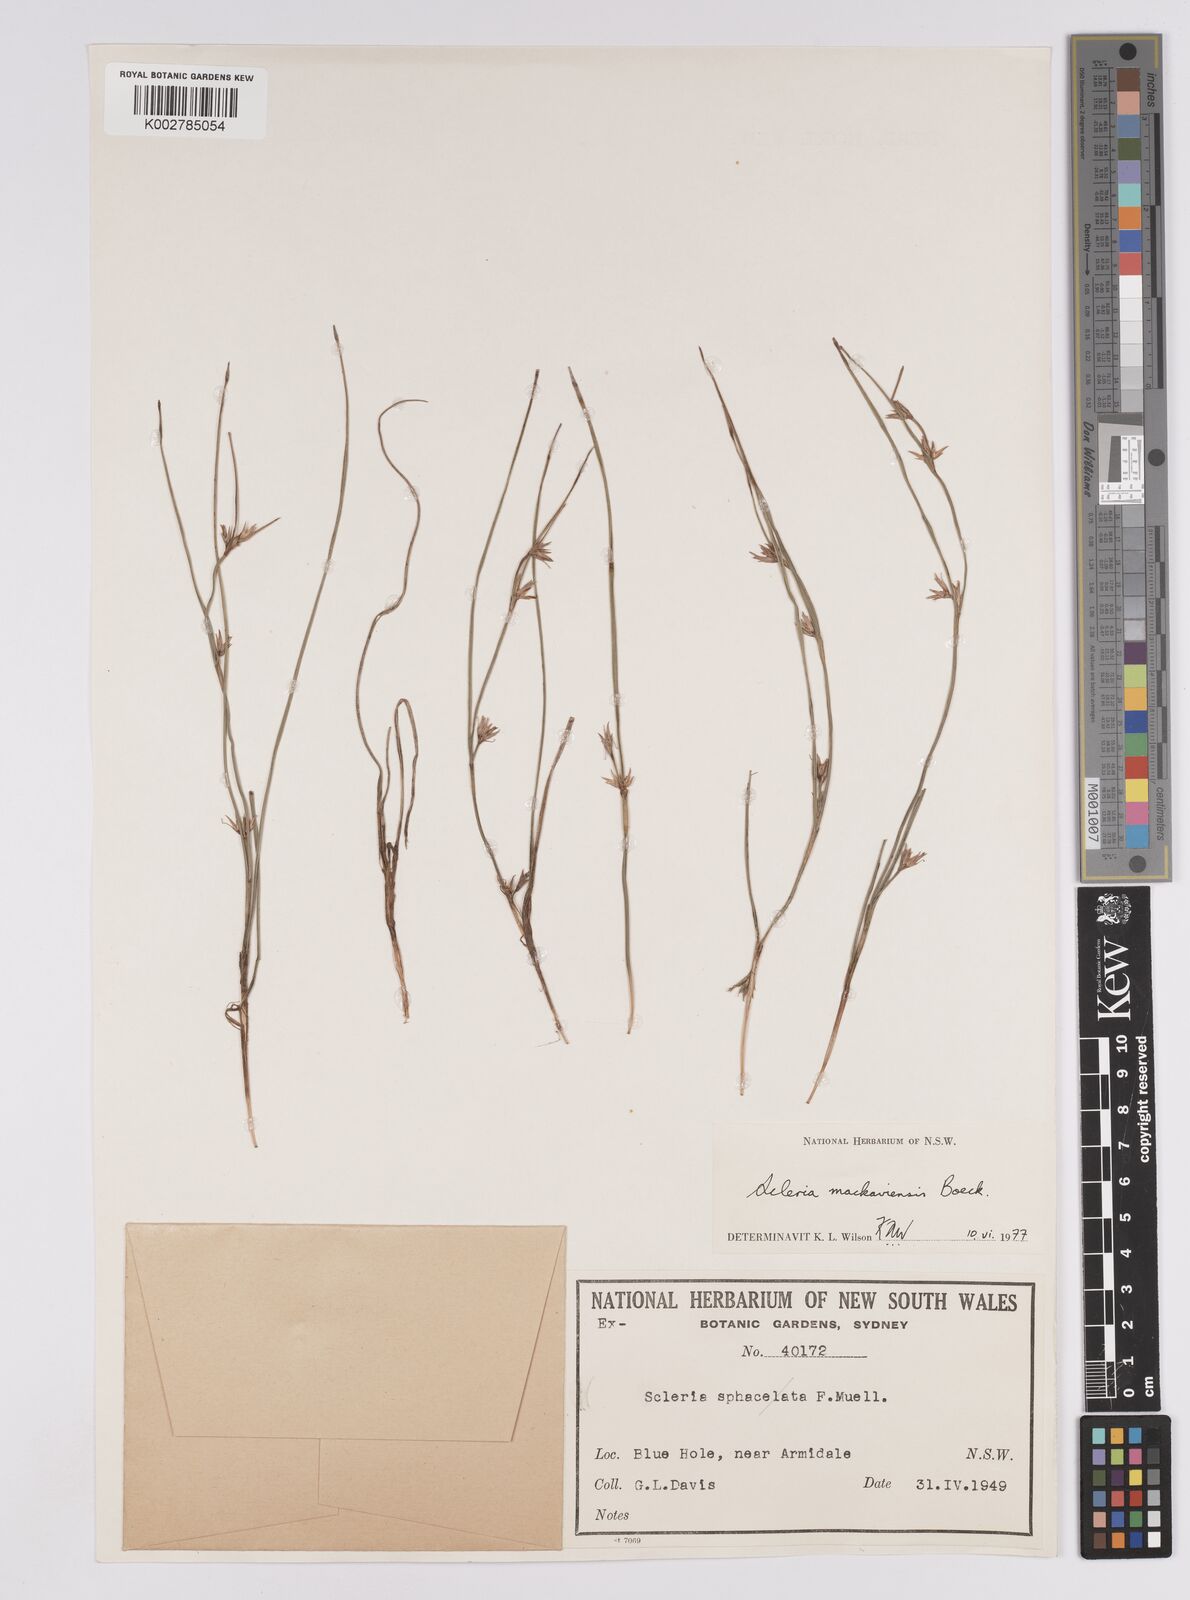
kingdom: Plantae
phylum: Tracheophyta
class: Liliopsida
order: Poales
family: Cyperaceae
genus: Scleria
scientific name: Scleria mackaviensis
